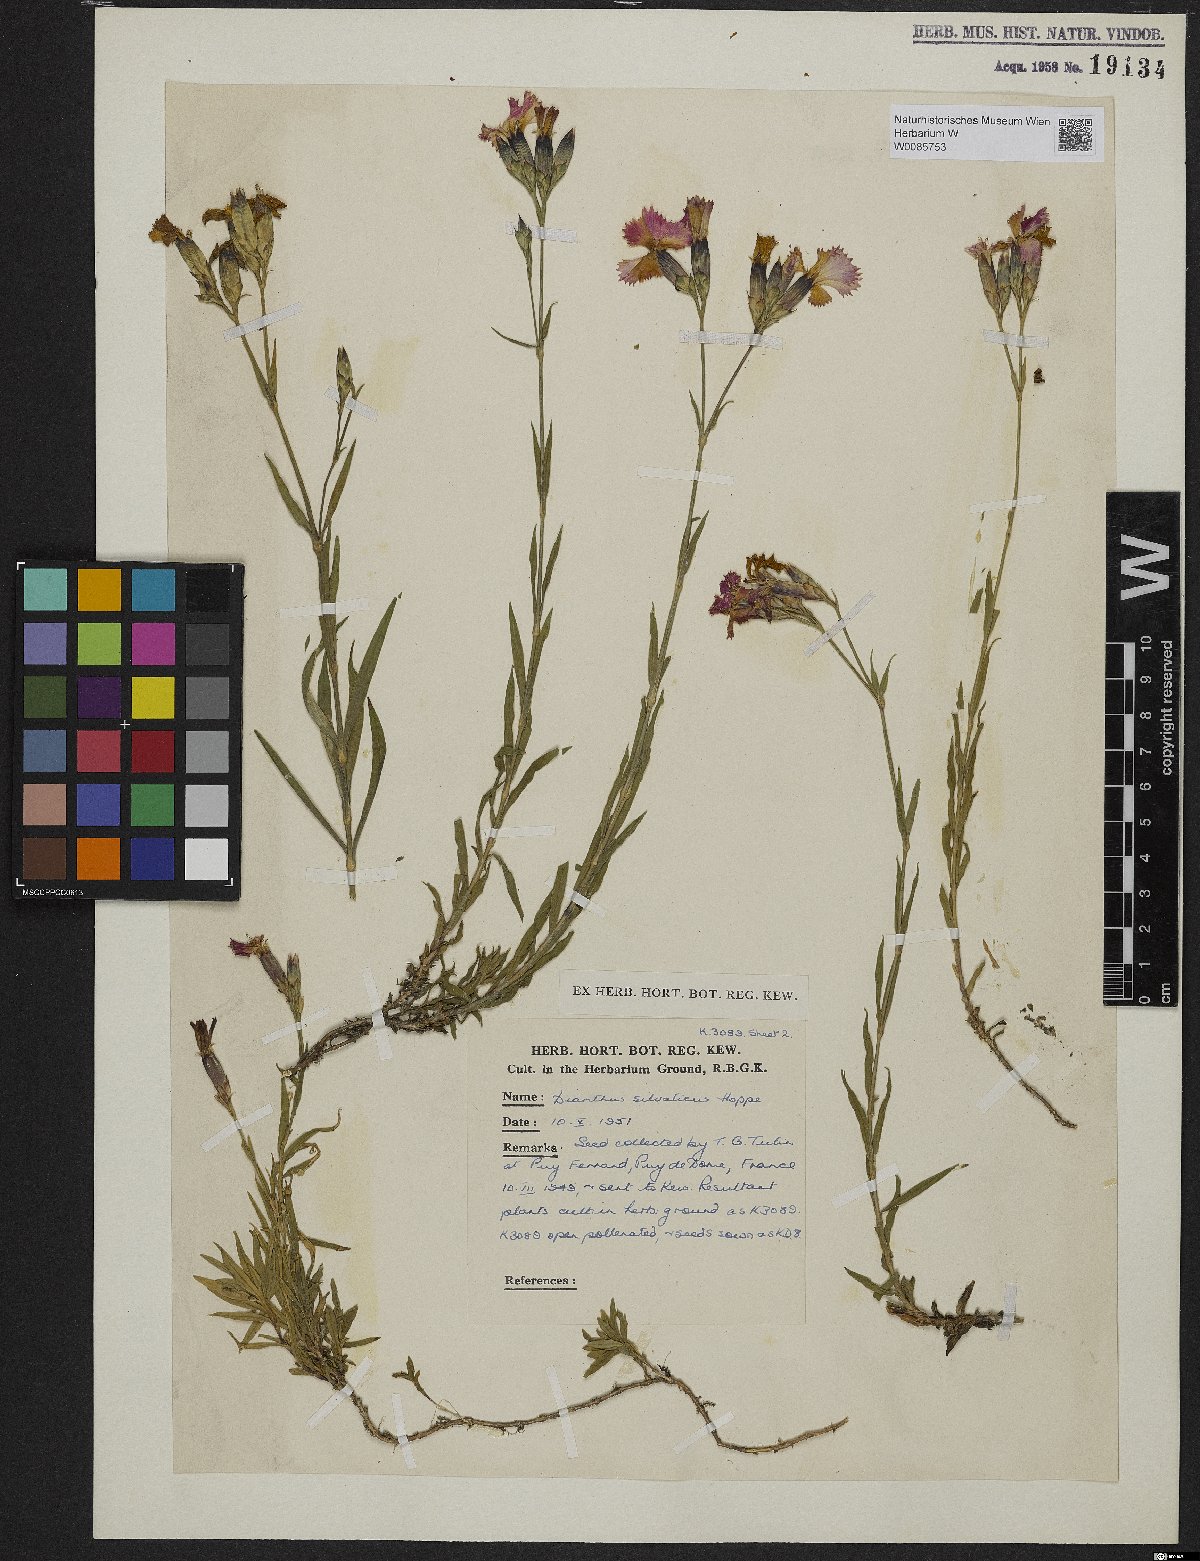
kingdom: Plantae
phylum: Tracheophyta
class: Magnoliopsida
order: Caryophyllales
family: Caryophyllaceae
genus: Dianthus
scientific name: Dianthus seguieri
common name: Ragged pink
